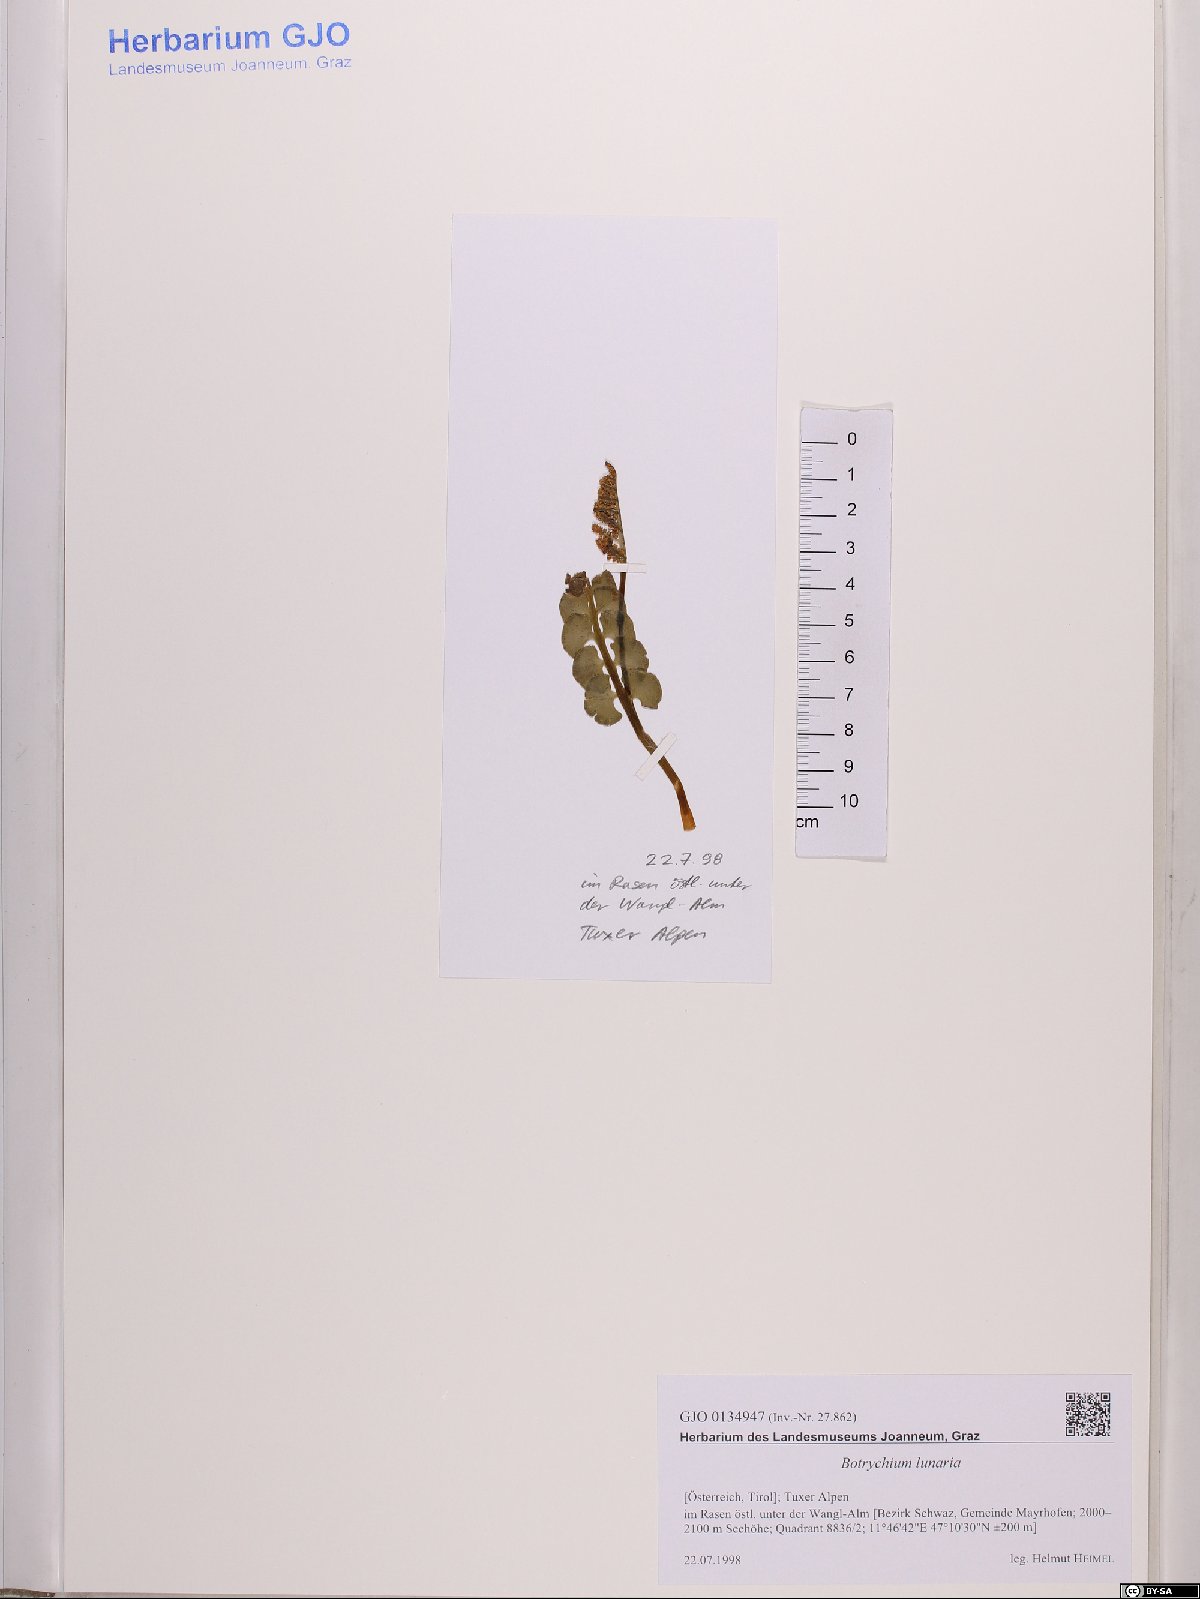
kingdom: Plantae
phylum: Tracheophyta
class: Polypodiopsida
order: Ophioglossales
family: Ophioglossaceae
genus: Botrychium
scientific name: Botrychium lunaria
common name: Moonwort
